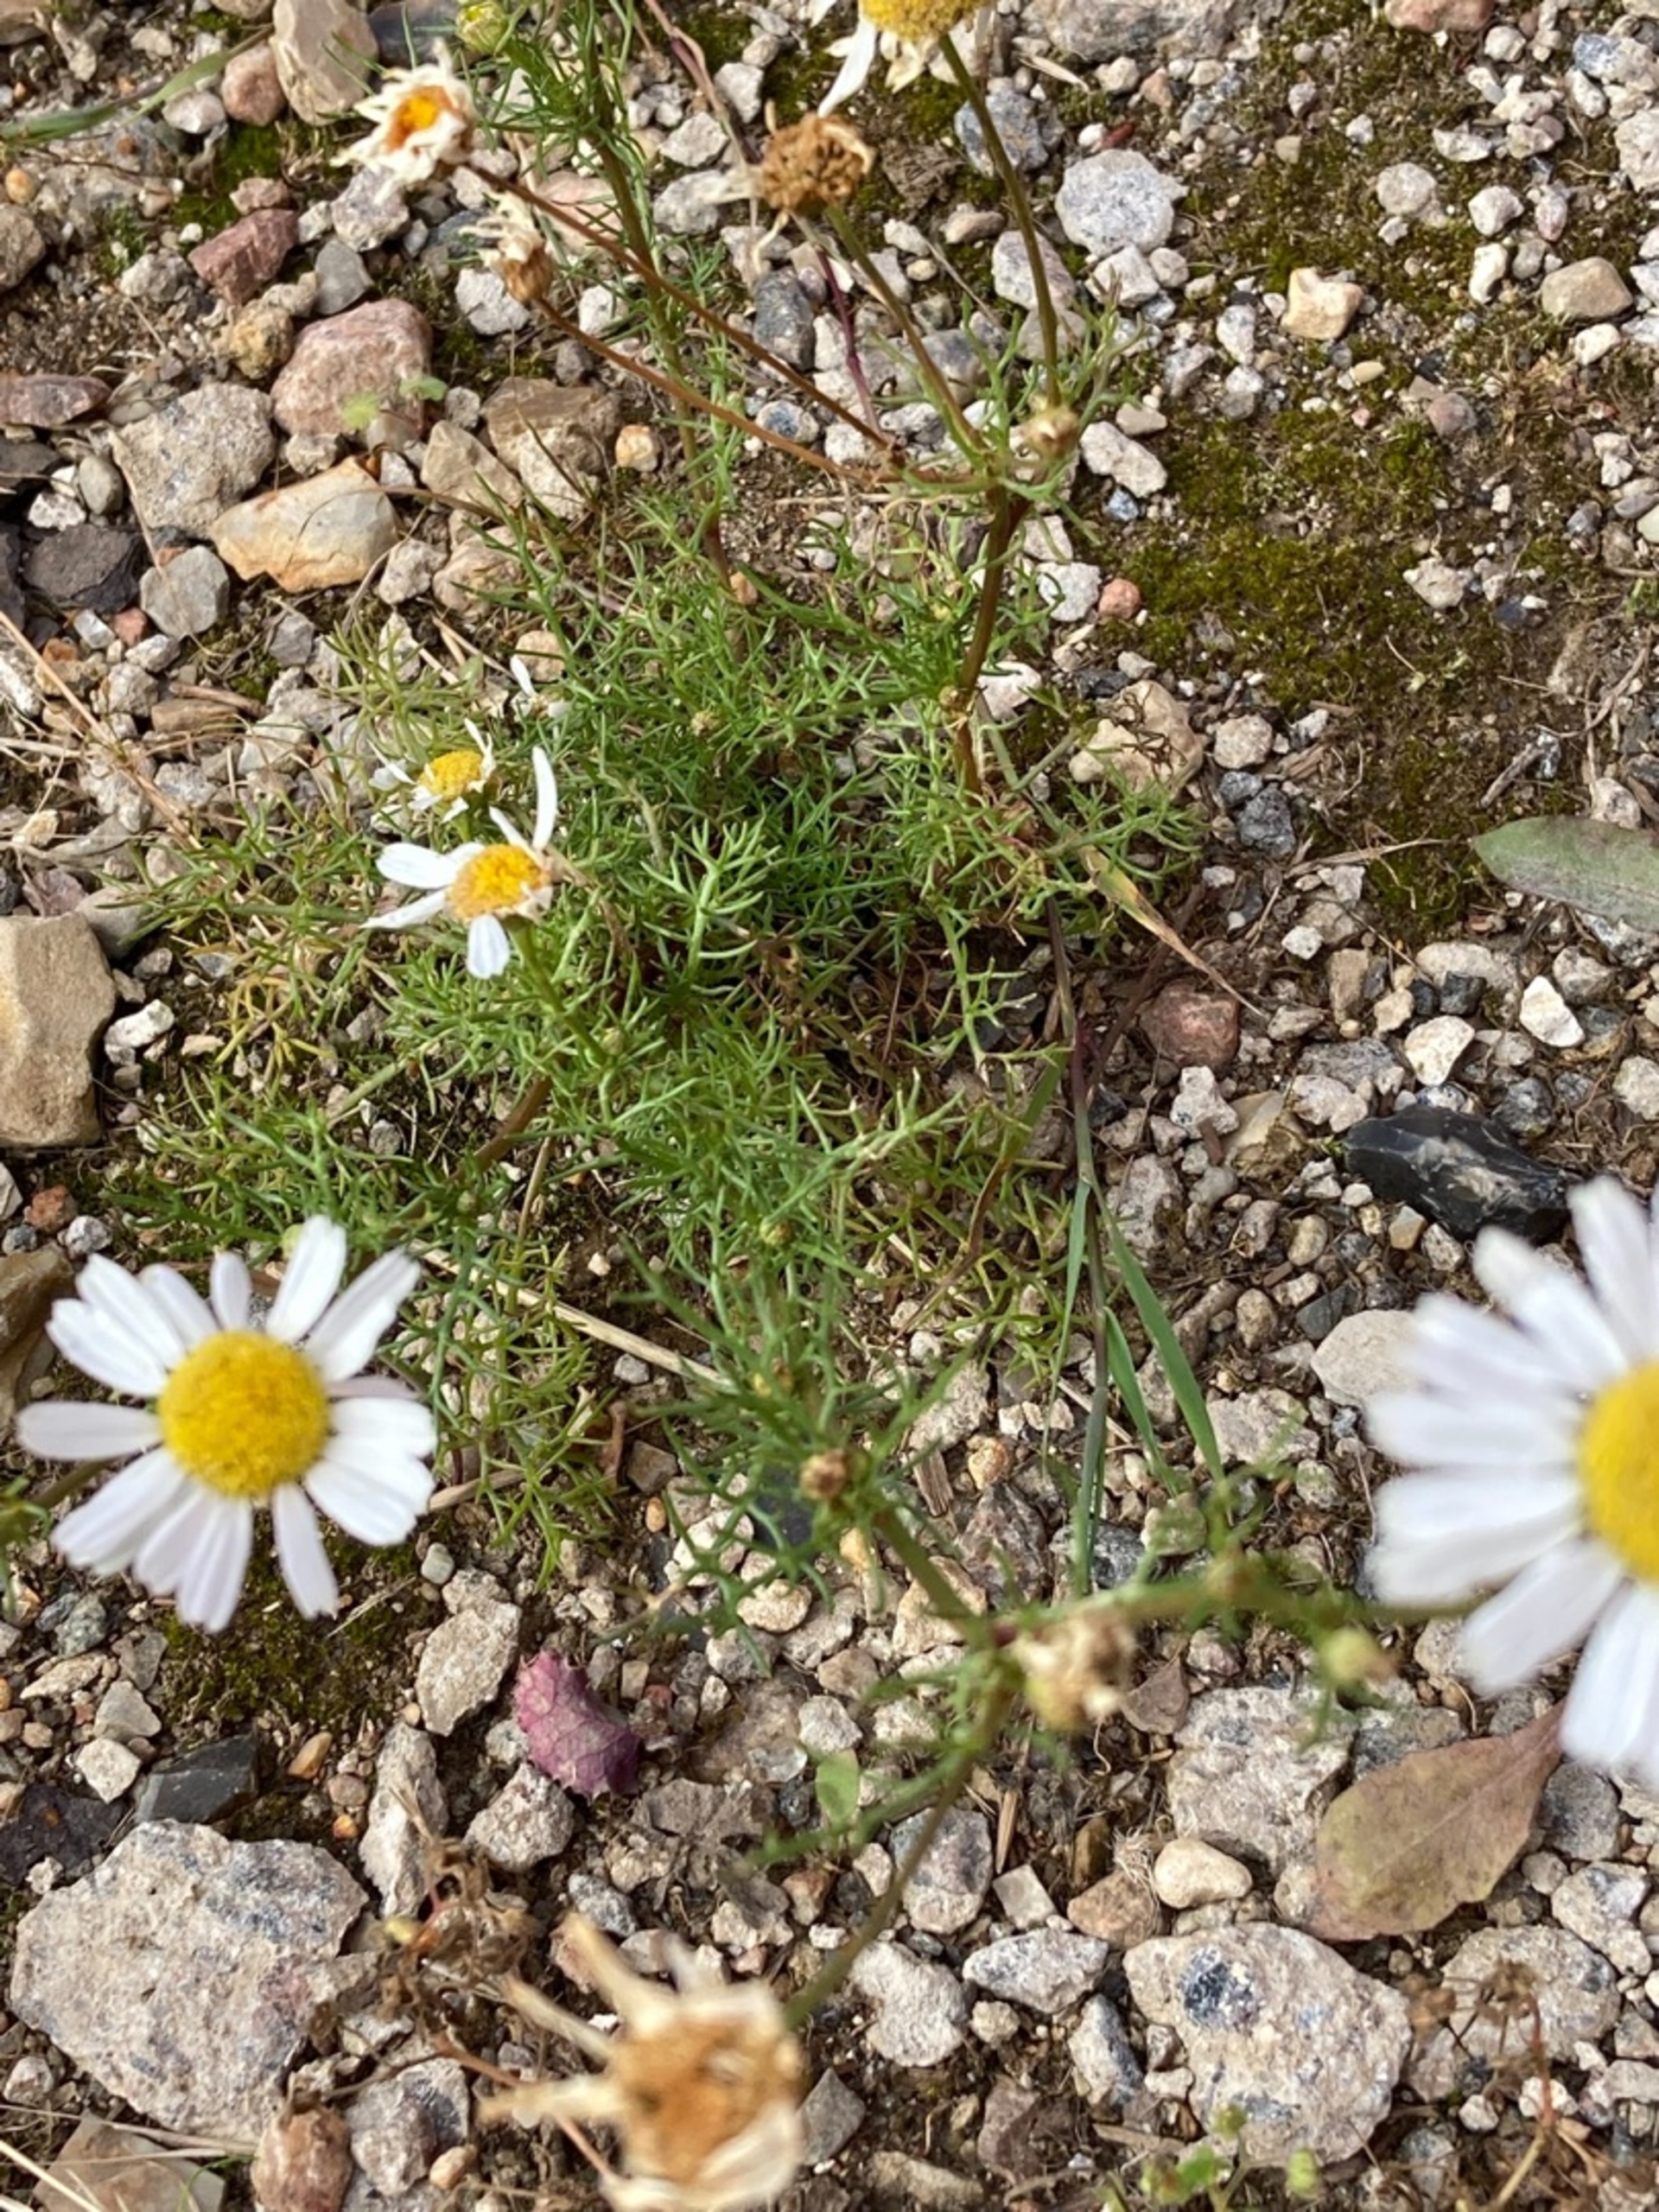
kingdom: Plantae
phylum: Tracheophyta
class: Magnoliopsida
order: Asterales
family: Asteraceae
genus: Tripleurospermum
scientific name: Tripleurospermum inodorum
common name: Lugtløs kamille
